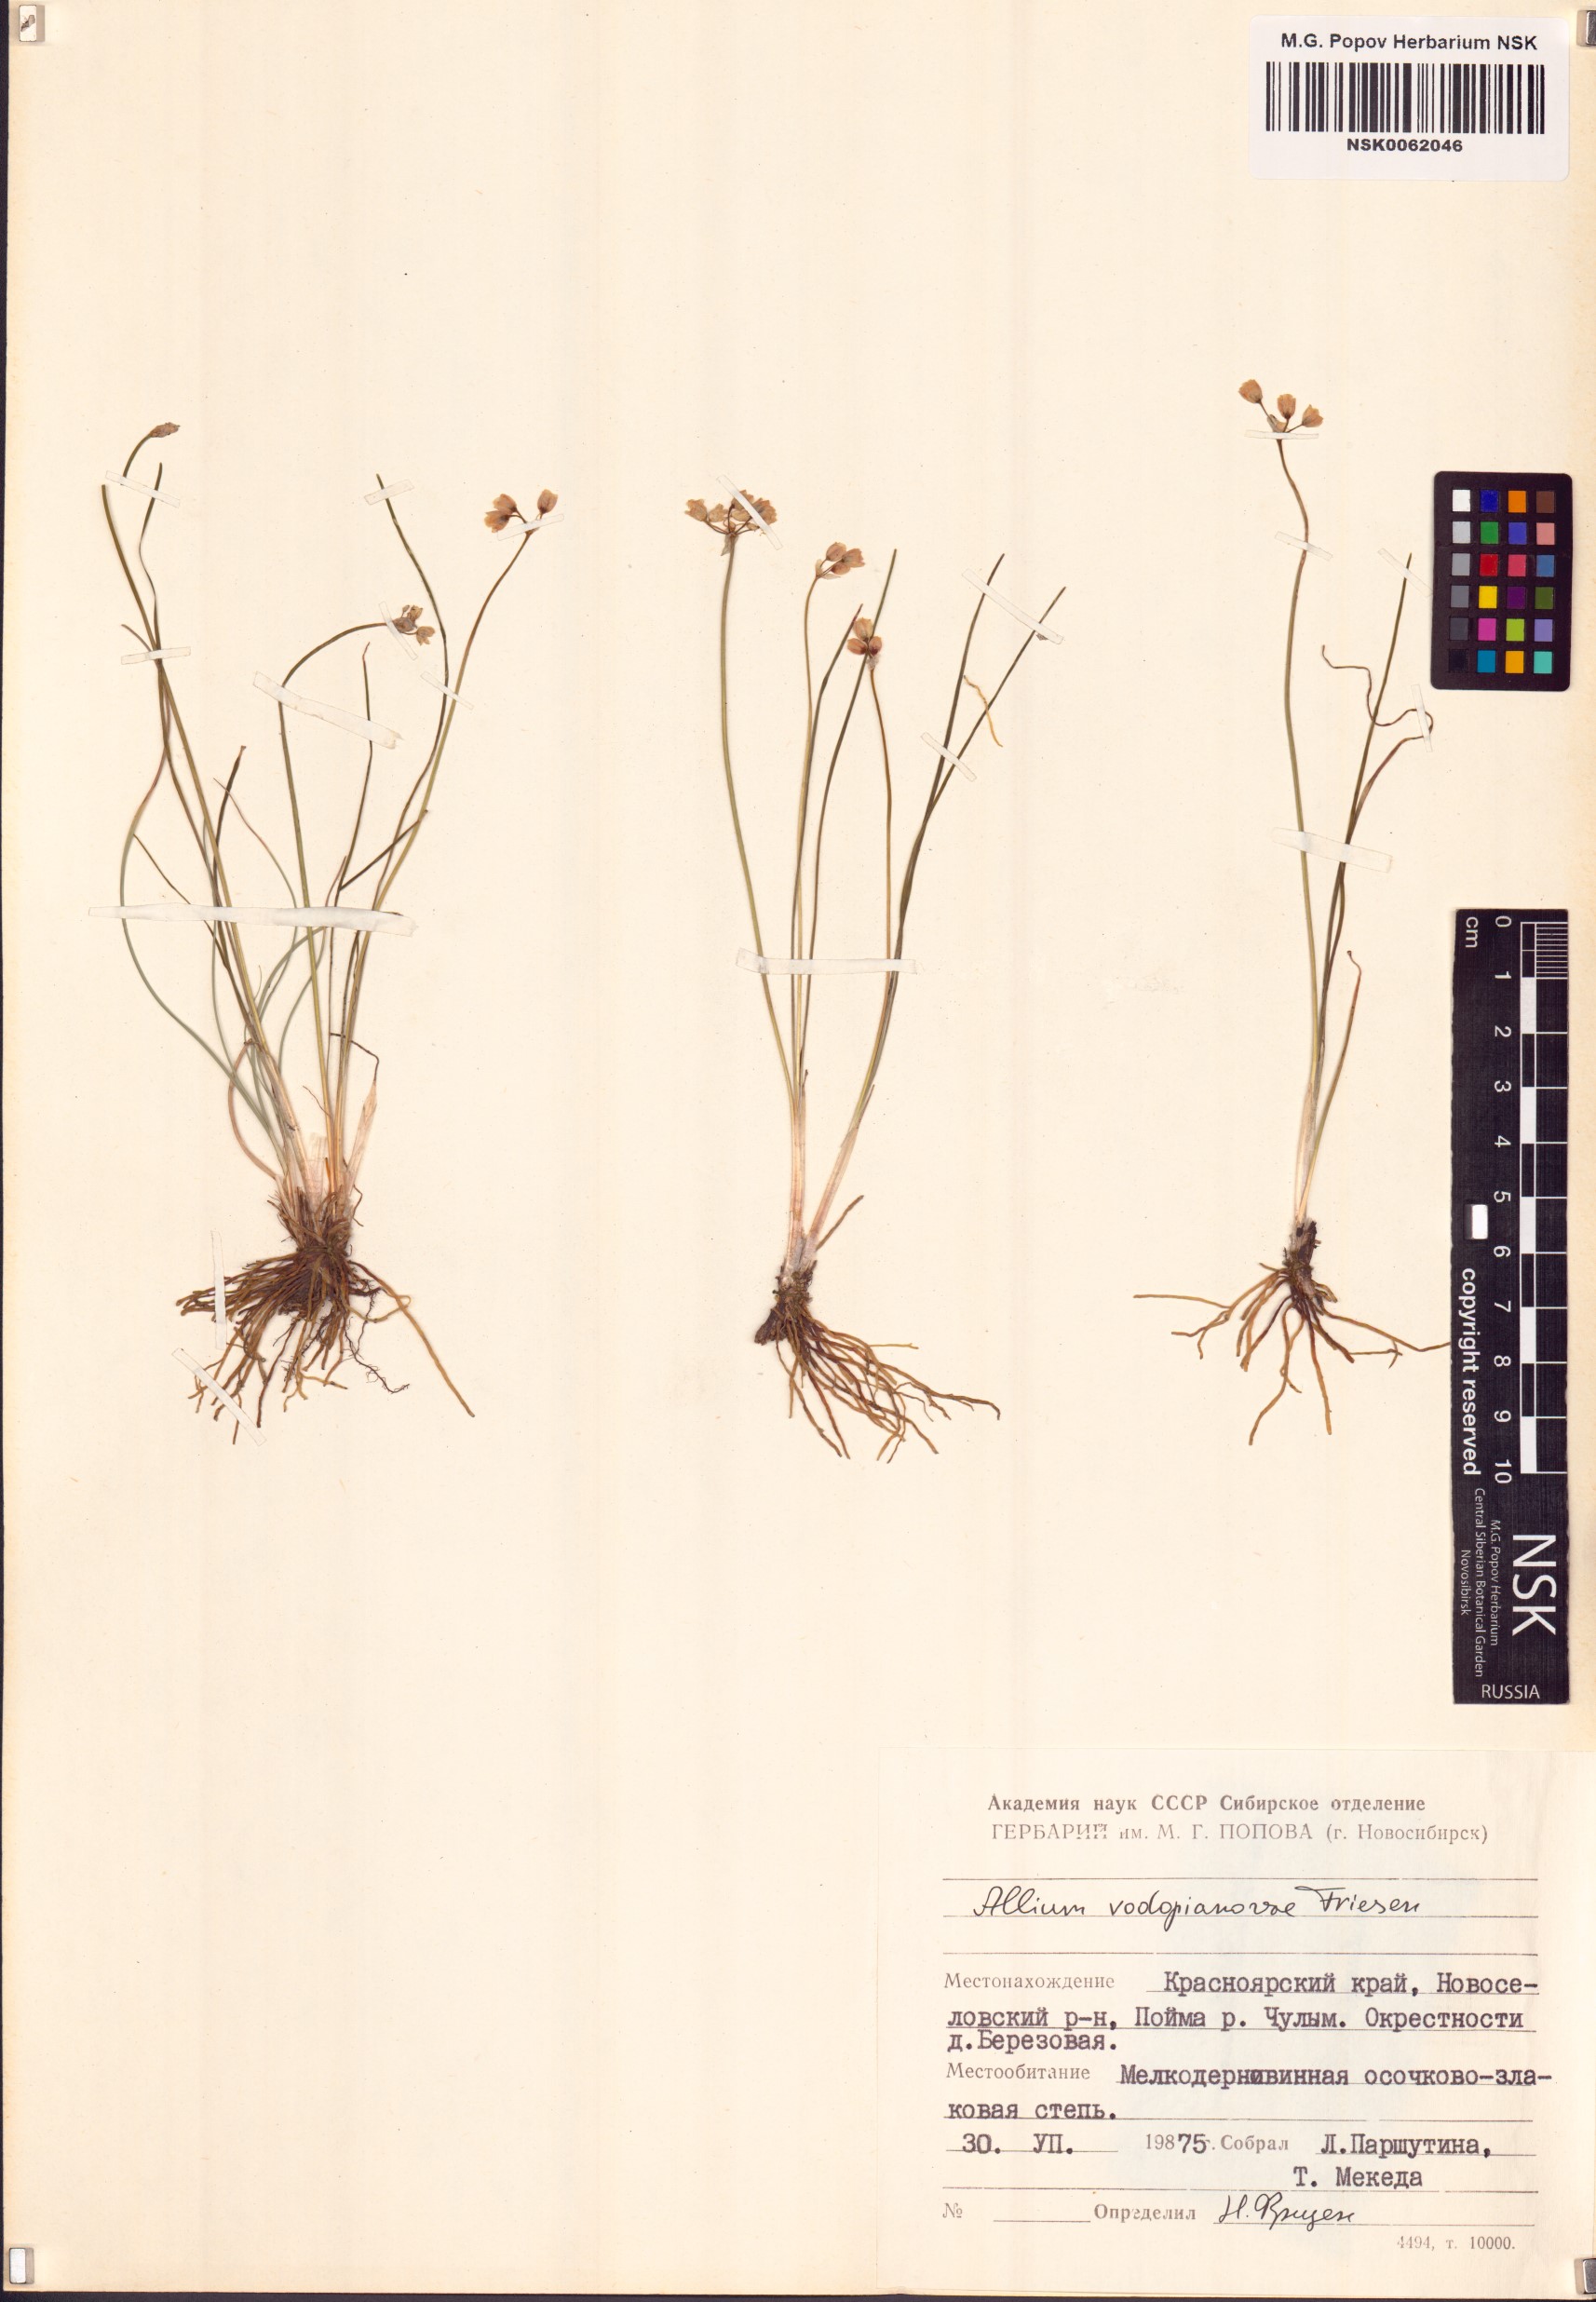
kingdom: Plantae
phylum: Tracheophyta
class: Liliopsida
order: Asparagales
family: Amaryllidaceae
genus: Allium
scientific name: Allium vodopjanovae
